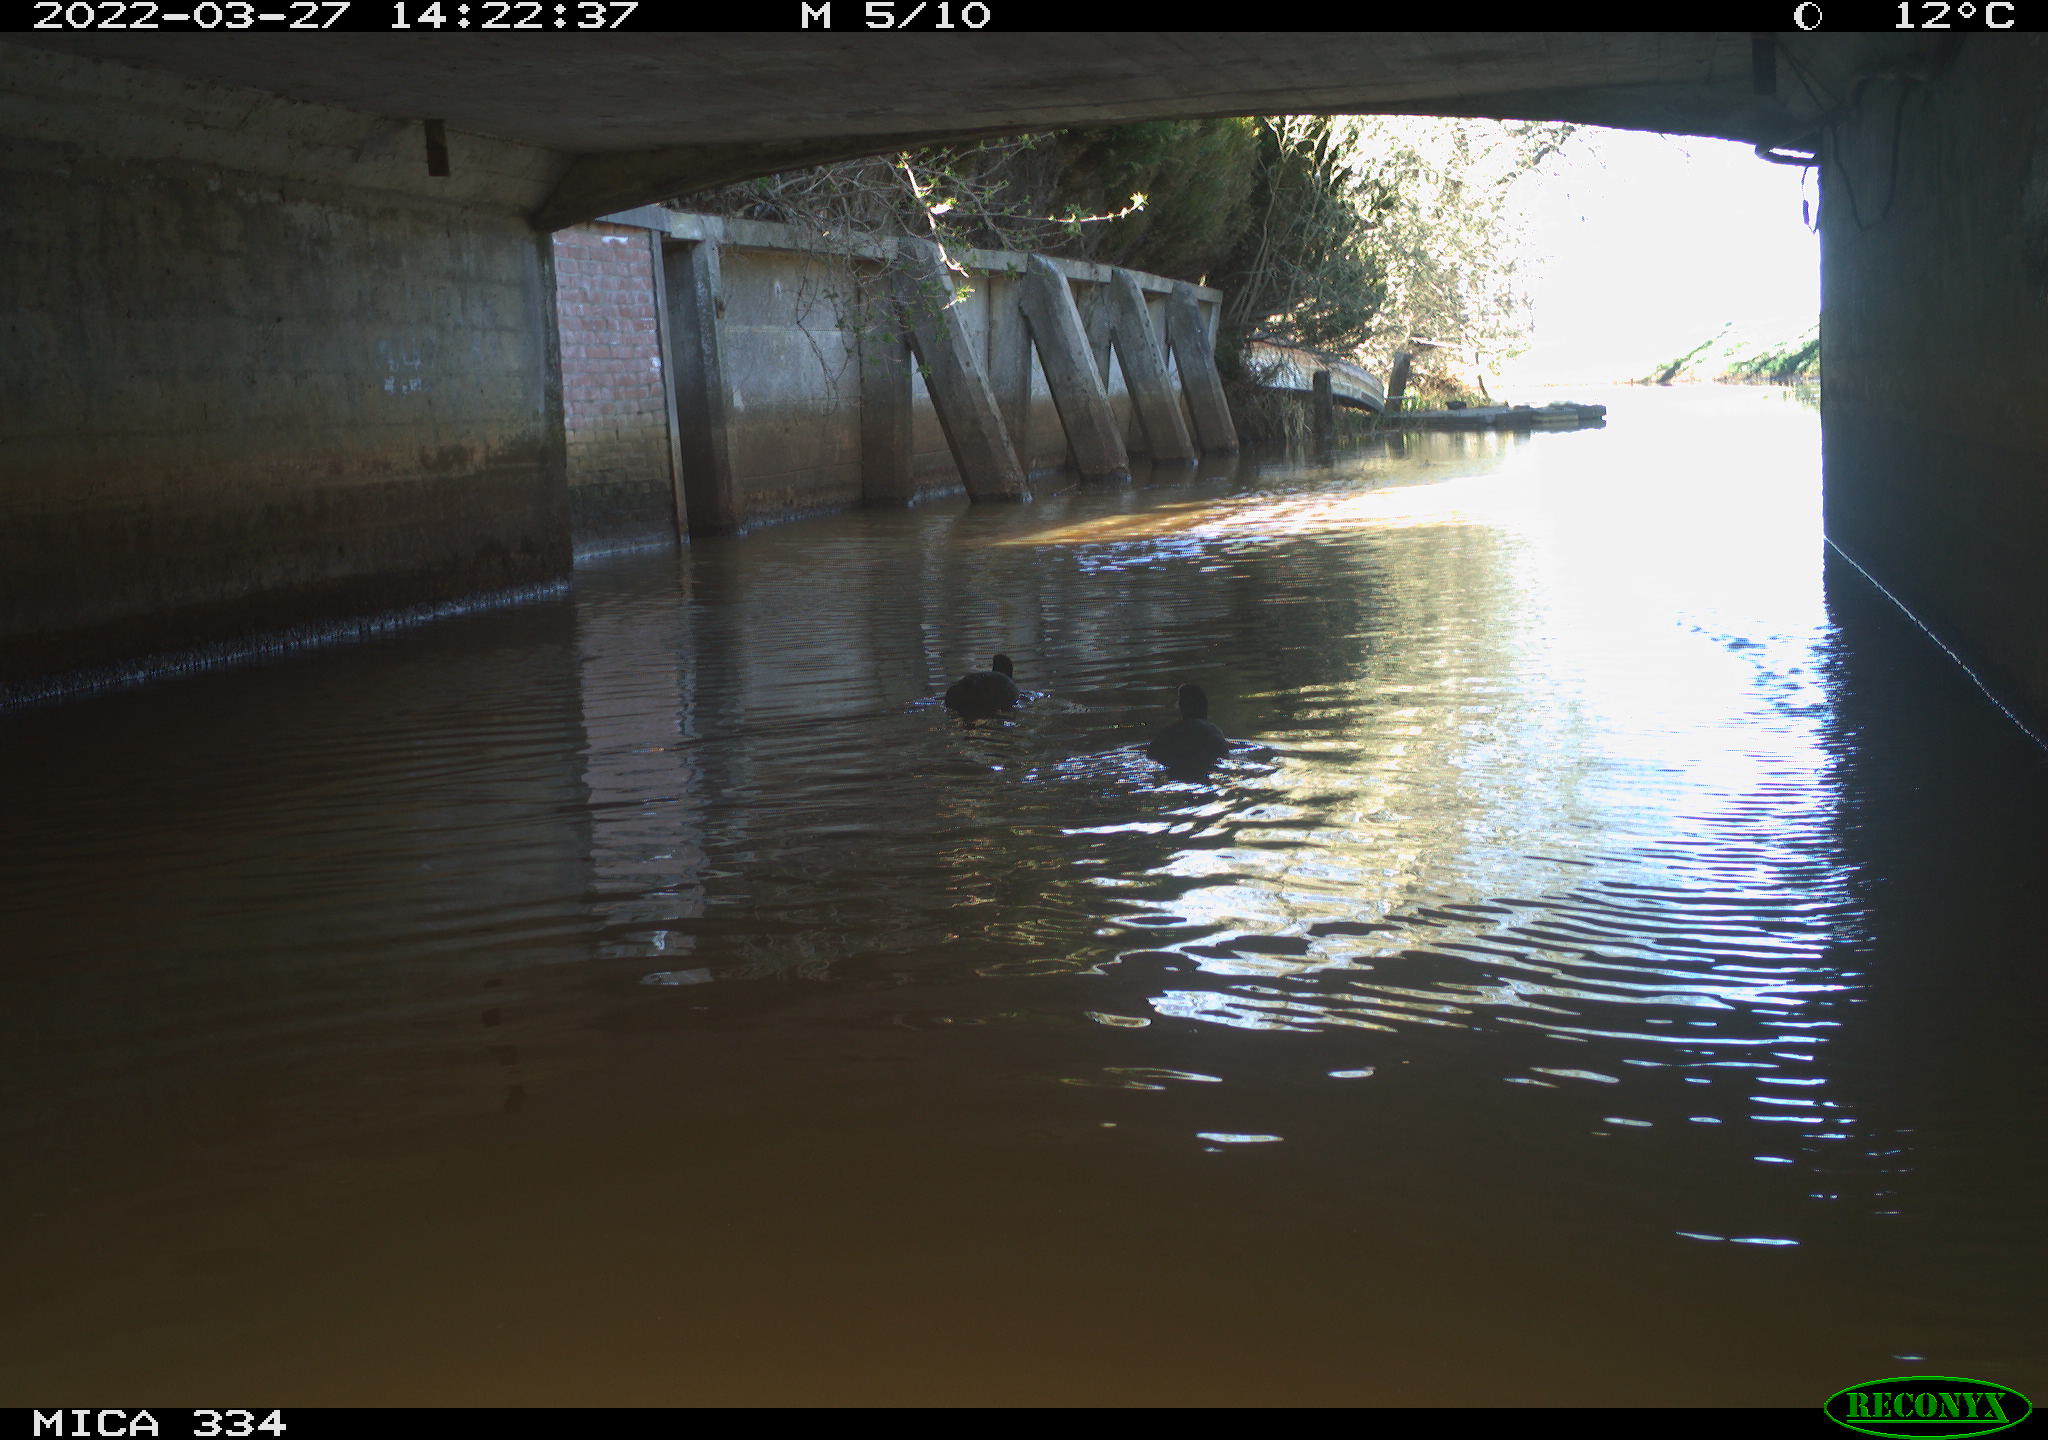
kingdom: Animalia
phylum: Chordata
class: Aves
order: Gruiformes
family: Rallidae
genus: Fulica
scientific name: Fulica atra
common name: Eurasian coot
